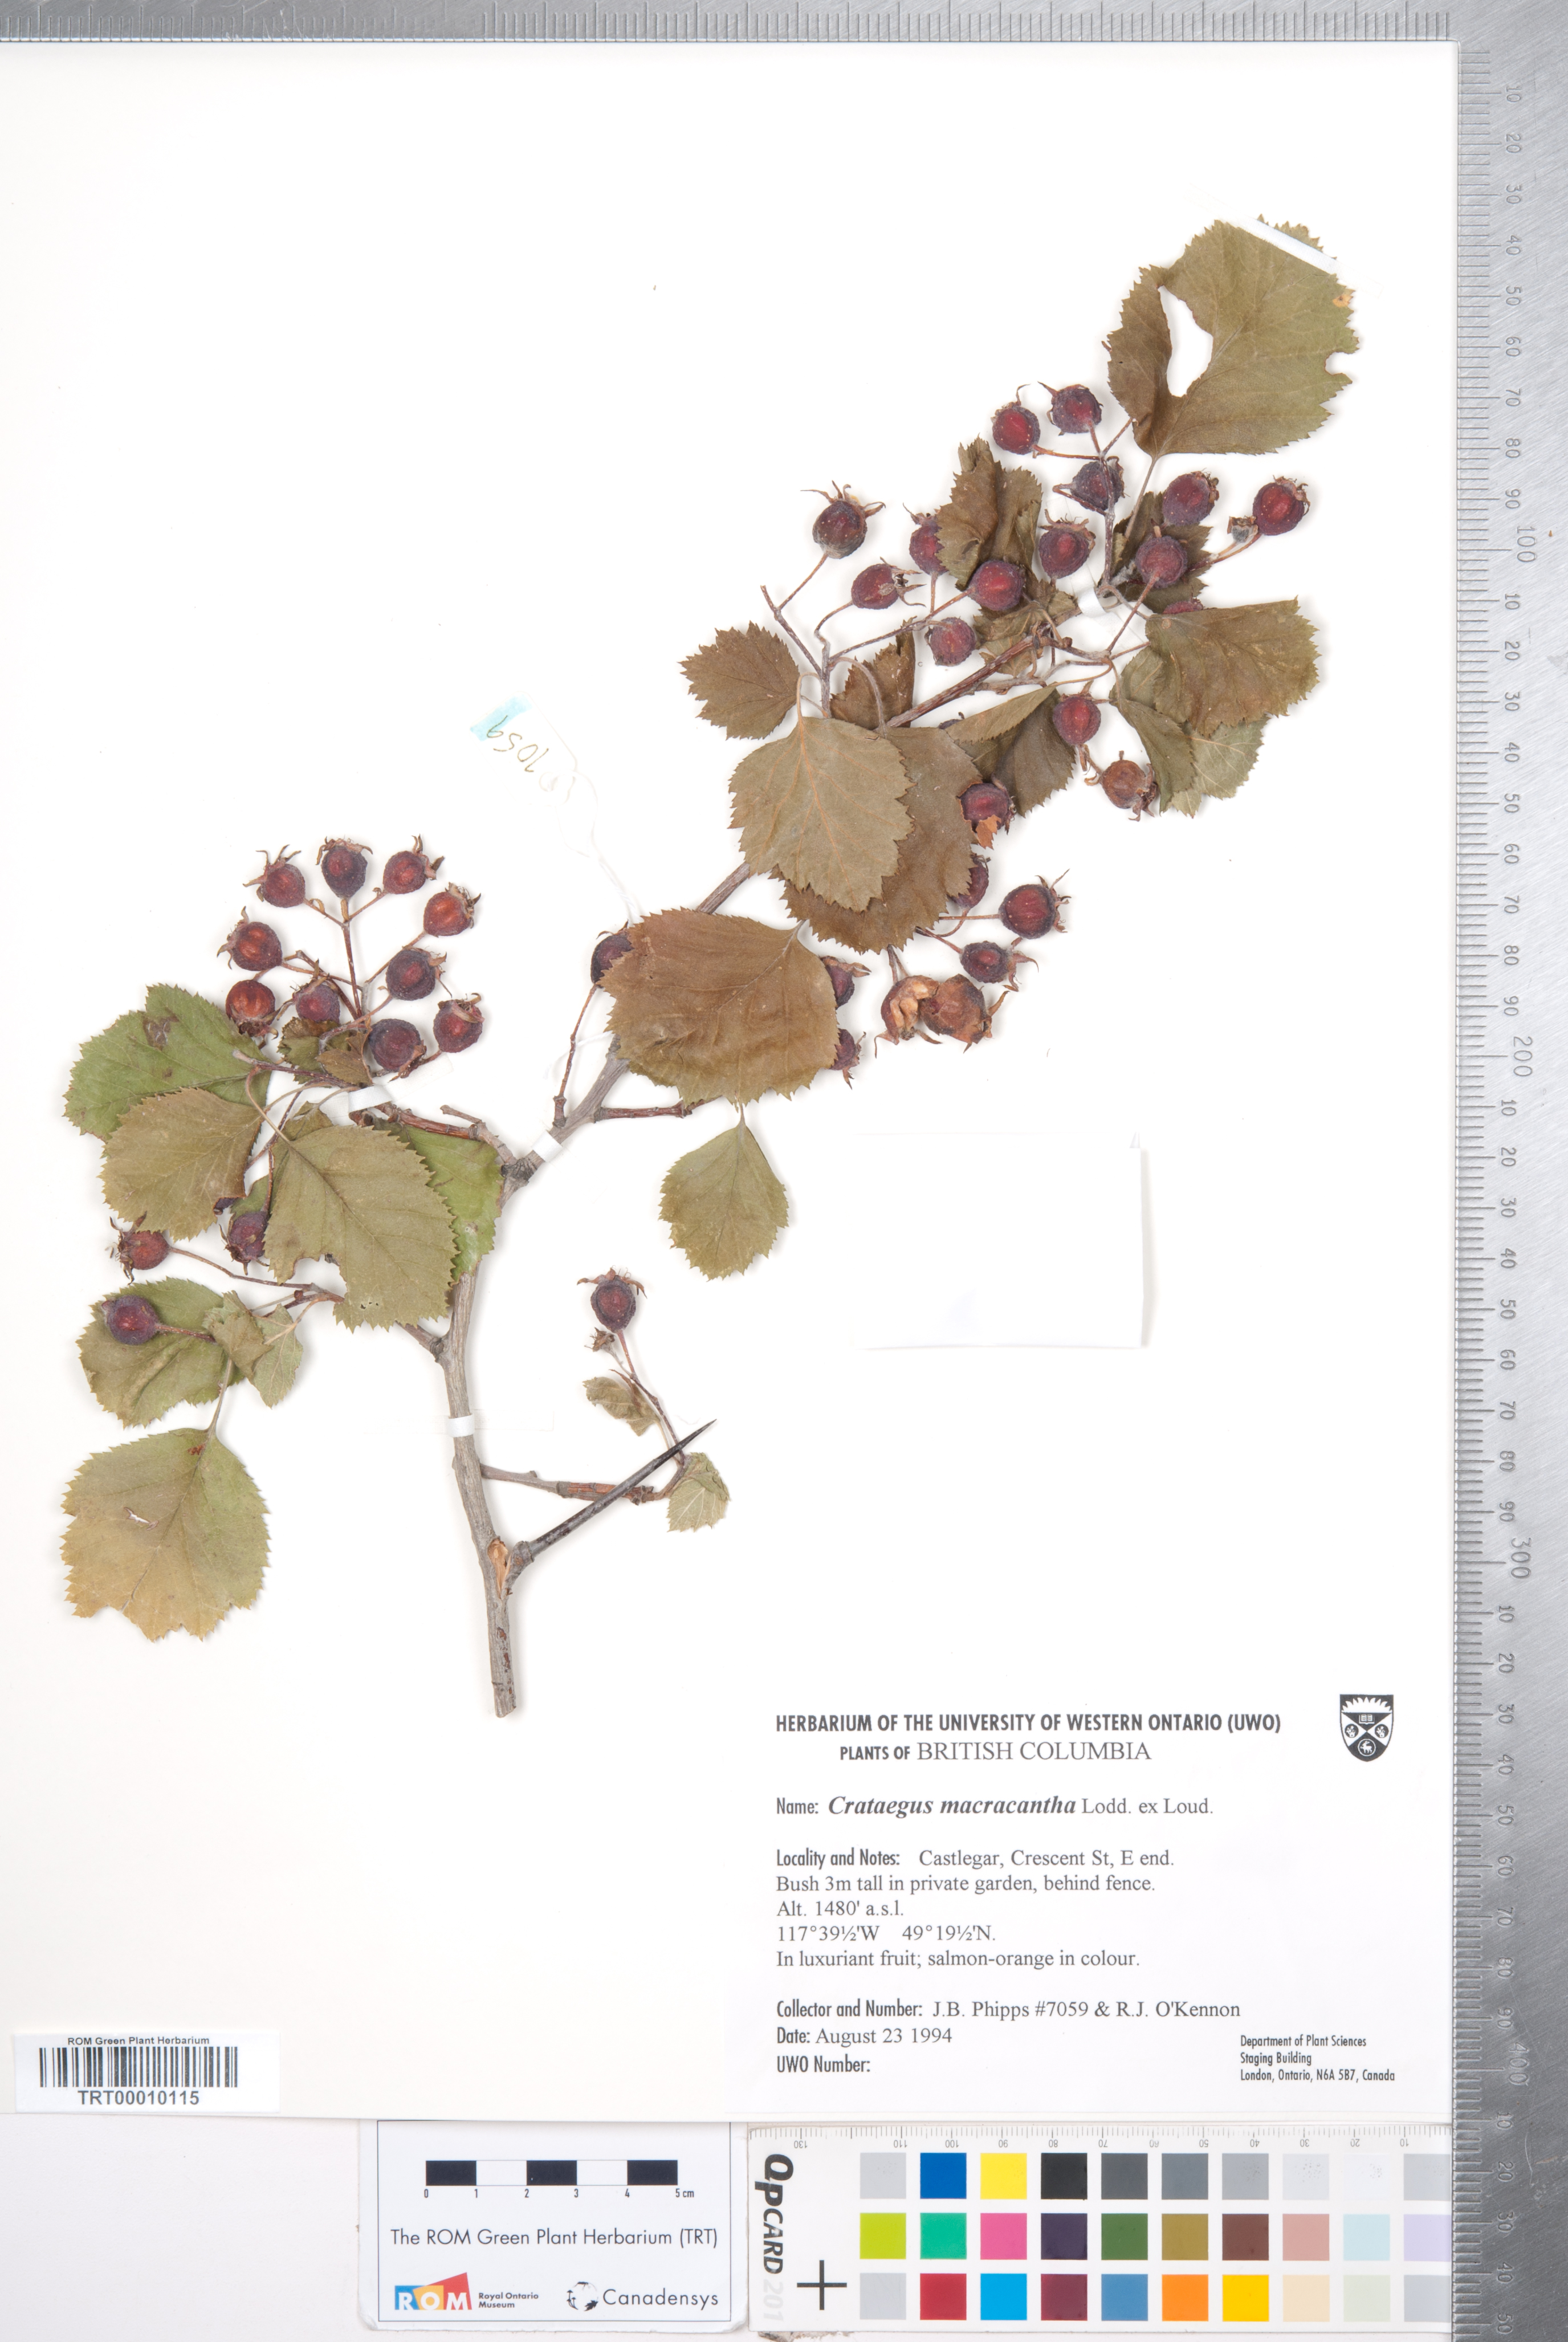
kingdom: Plantae
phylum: Tracheophyta
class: Magnoliopsida
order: Rosales
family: Rosaceae
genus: Crataegus
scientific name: Crataegus macracantha
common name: Large-thorn hawthorn
